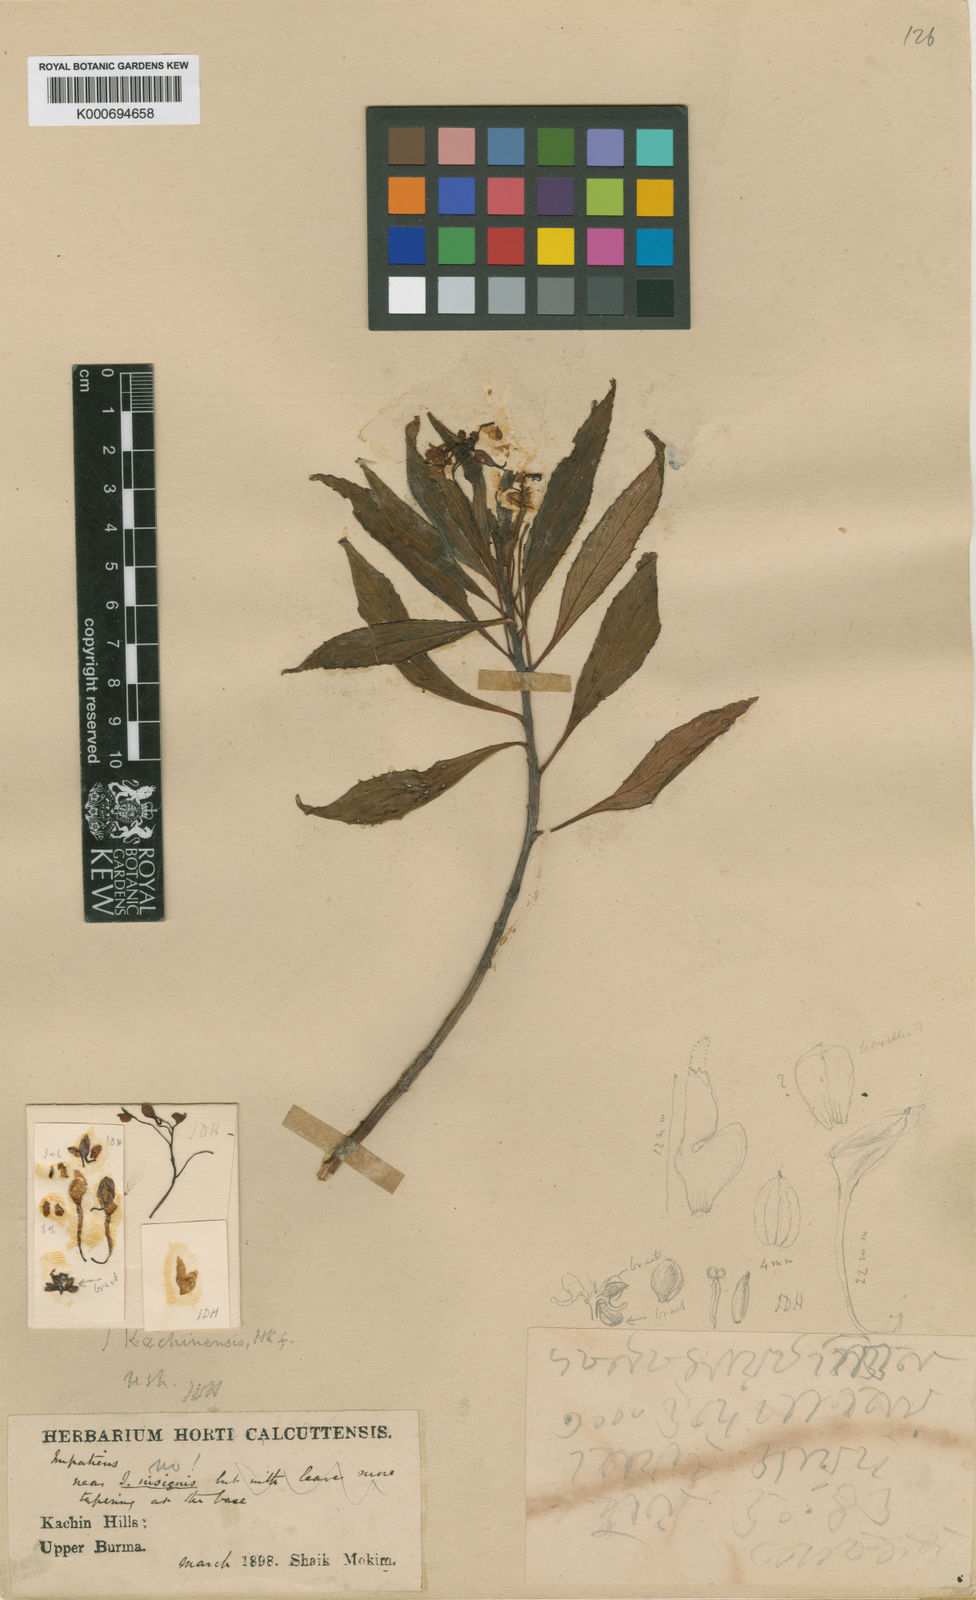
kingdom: Plantae
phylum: Tracheophyta
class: Magnoliopsida
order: Ericales
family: Balsaminaceae
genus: Impatiens
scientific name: Impatiens kachinensis
